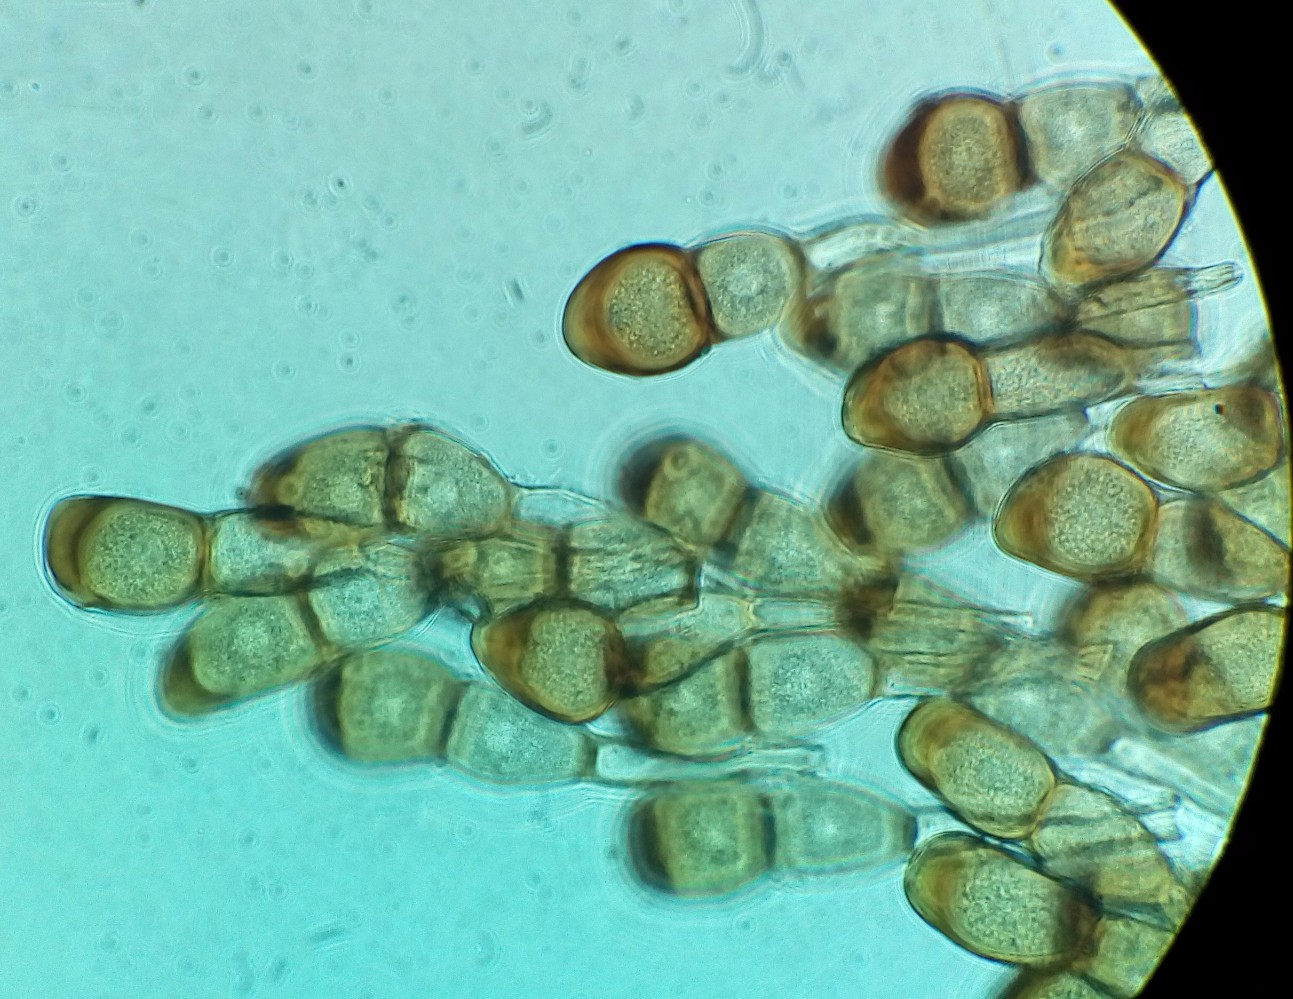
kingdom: Fungi
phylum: Basidiomycota
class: Pucciniomycetes
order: Pucciniales
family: Pucciniaceae
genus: Puccinia
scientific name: Puccinia cnici-oleracei
